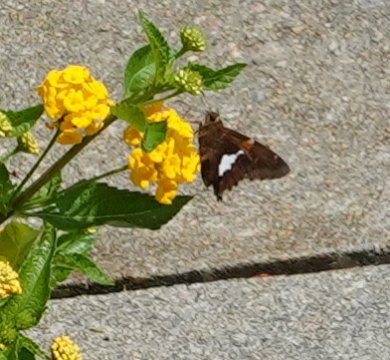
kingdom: Animalia
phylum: Arthropoda
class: Insecta
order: Lepidoptera
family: Hesperiidae
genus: Epargyreus
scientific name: Epargyreus clarus
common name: Silver-spotted Skipper
